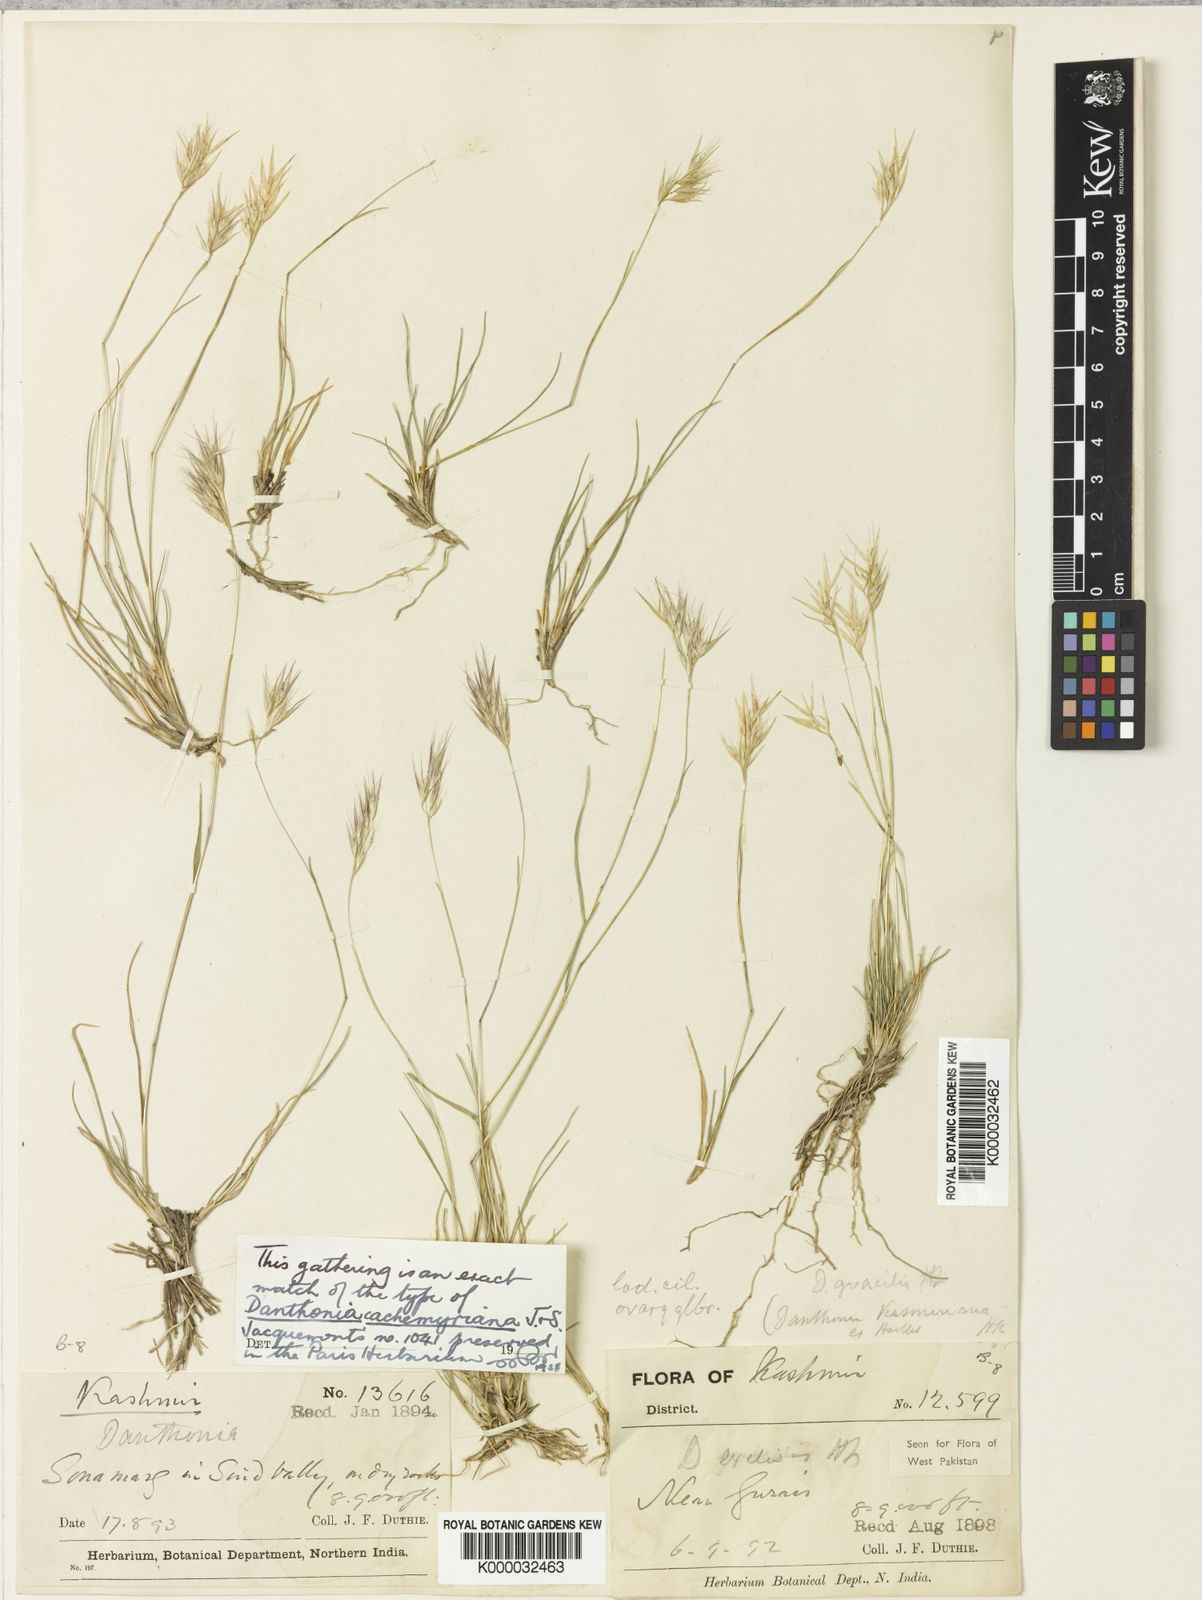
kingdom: Plantae
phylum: Tracheophyta
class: Liliopsida
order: Poales
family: Poaceae
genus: Tenaxia
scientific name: Tenaxia cachemyriana
